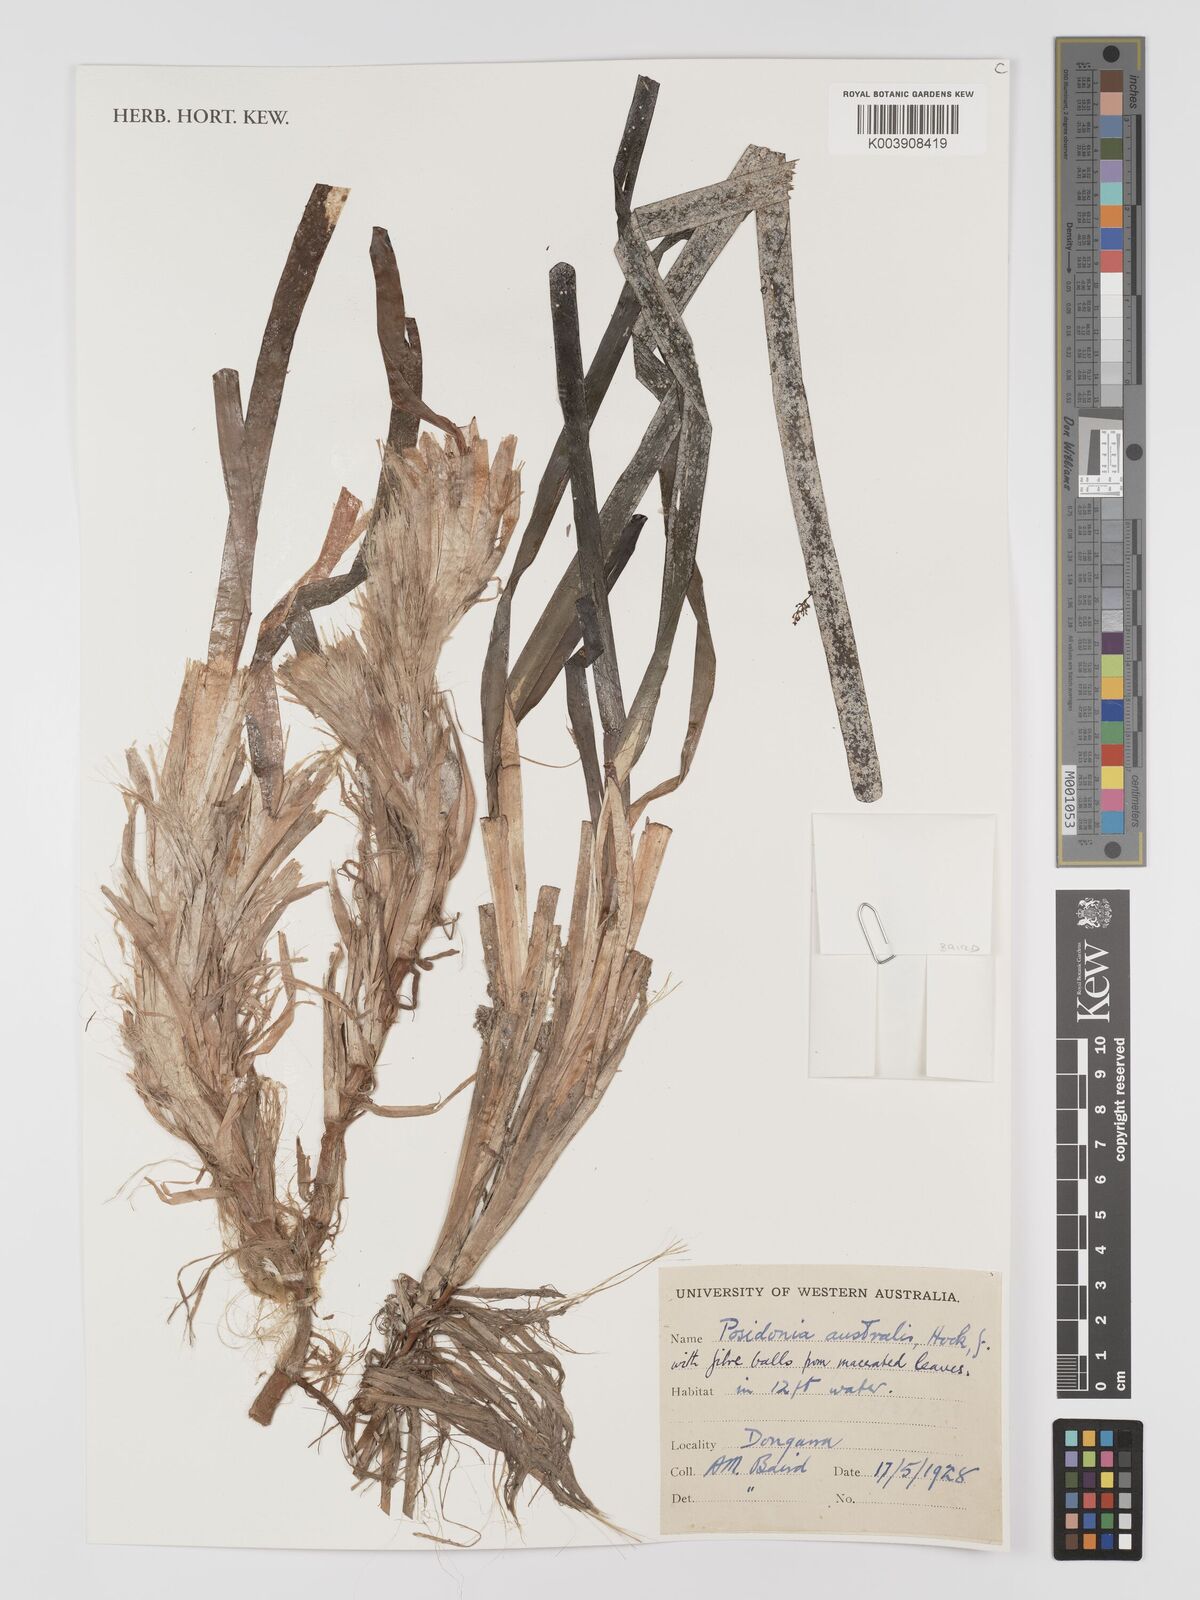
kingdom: Plantae
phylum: Tracheophyta
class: Liliopsida
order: Alismatales
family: Posidoniaceae
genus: Posidonia
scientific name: Posidonia australis
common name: Species code: pa
